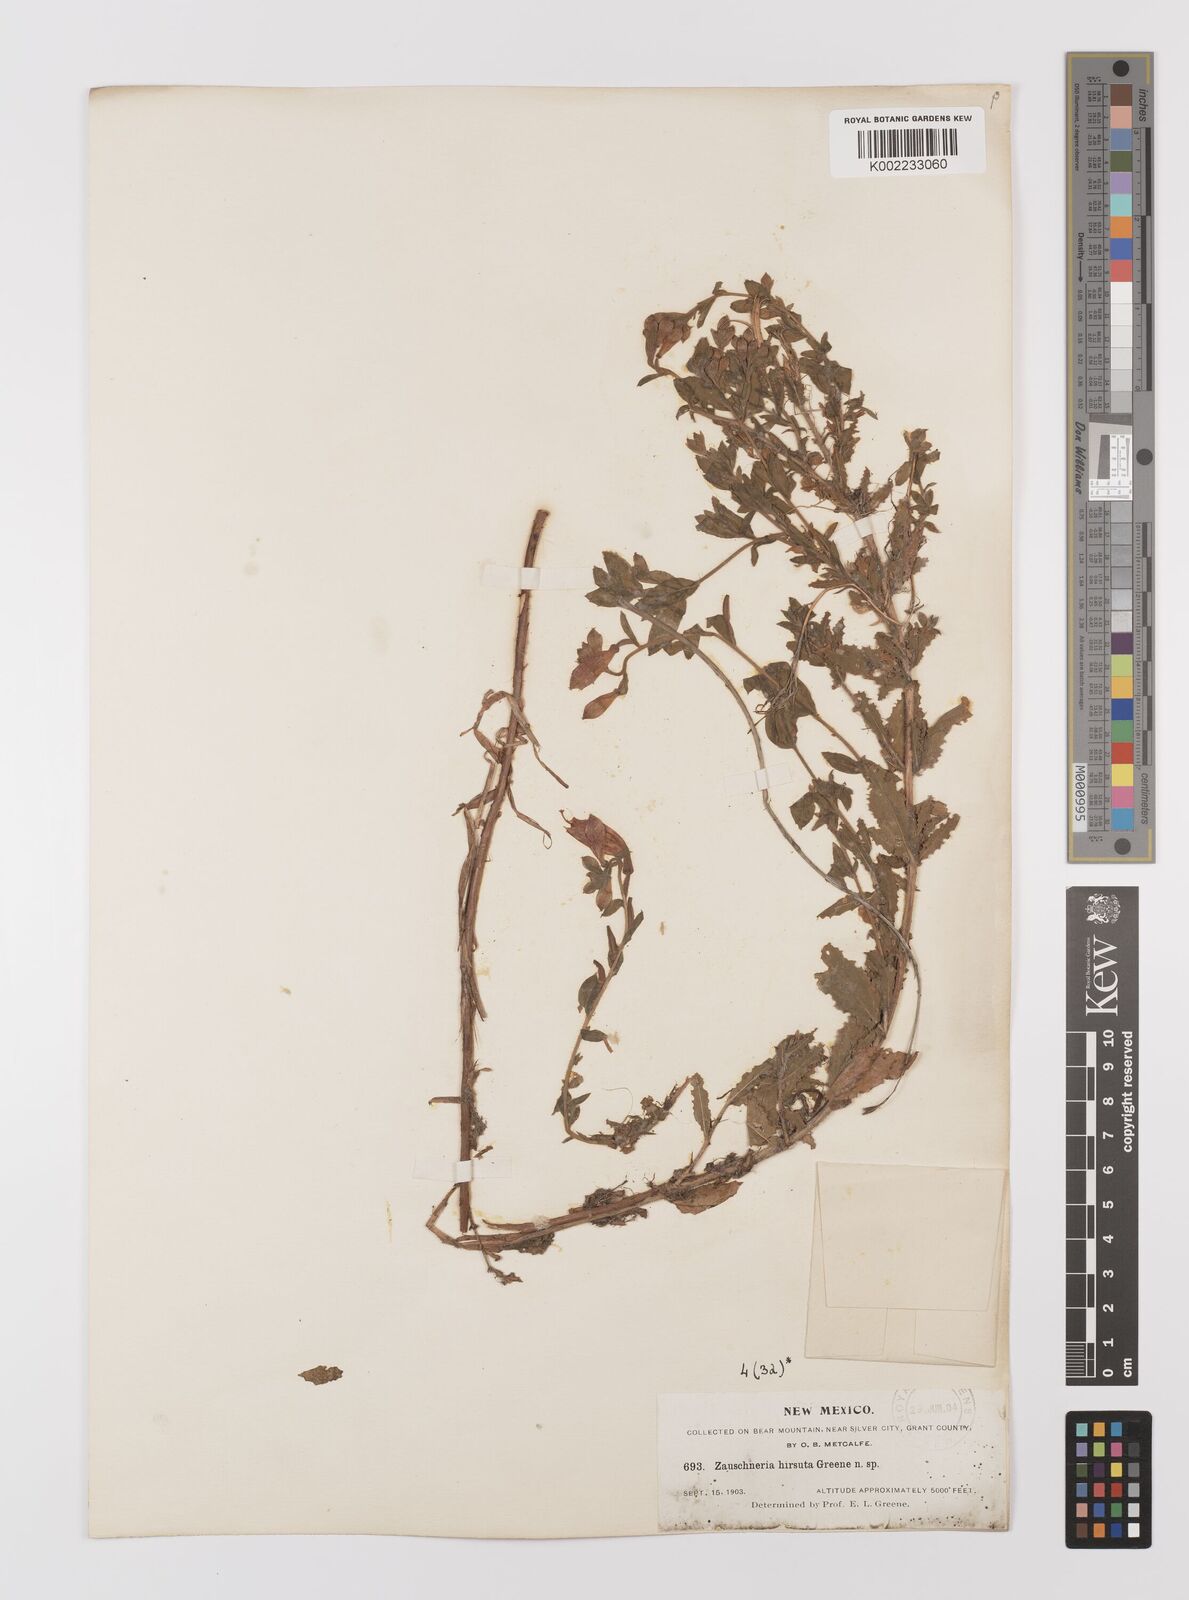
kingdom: Plantae
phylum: Tracheophyta
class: Magnoliopsida
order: Myrtales
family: Onagraceae
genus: Epilobium
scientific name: Epilobium
